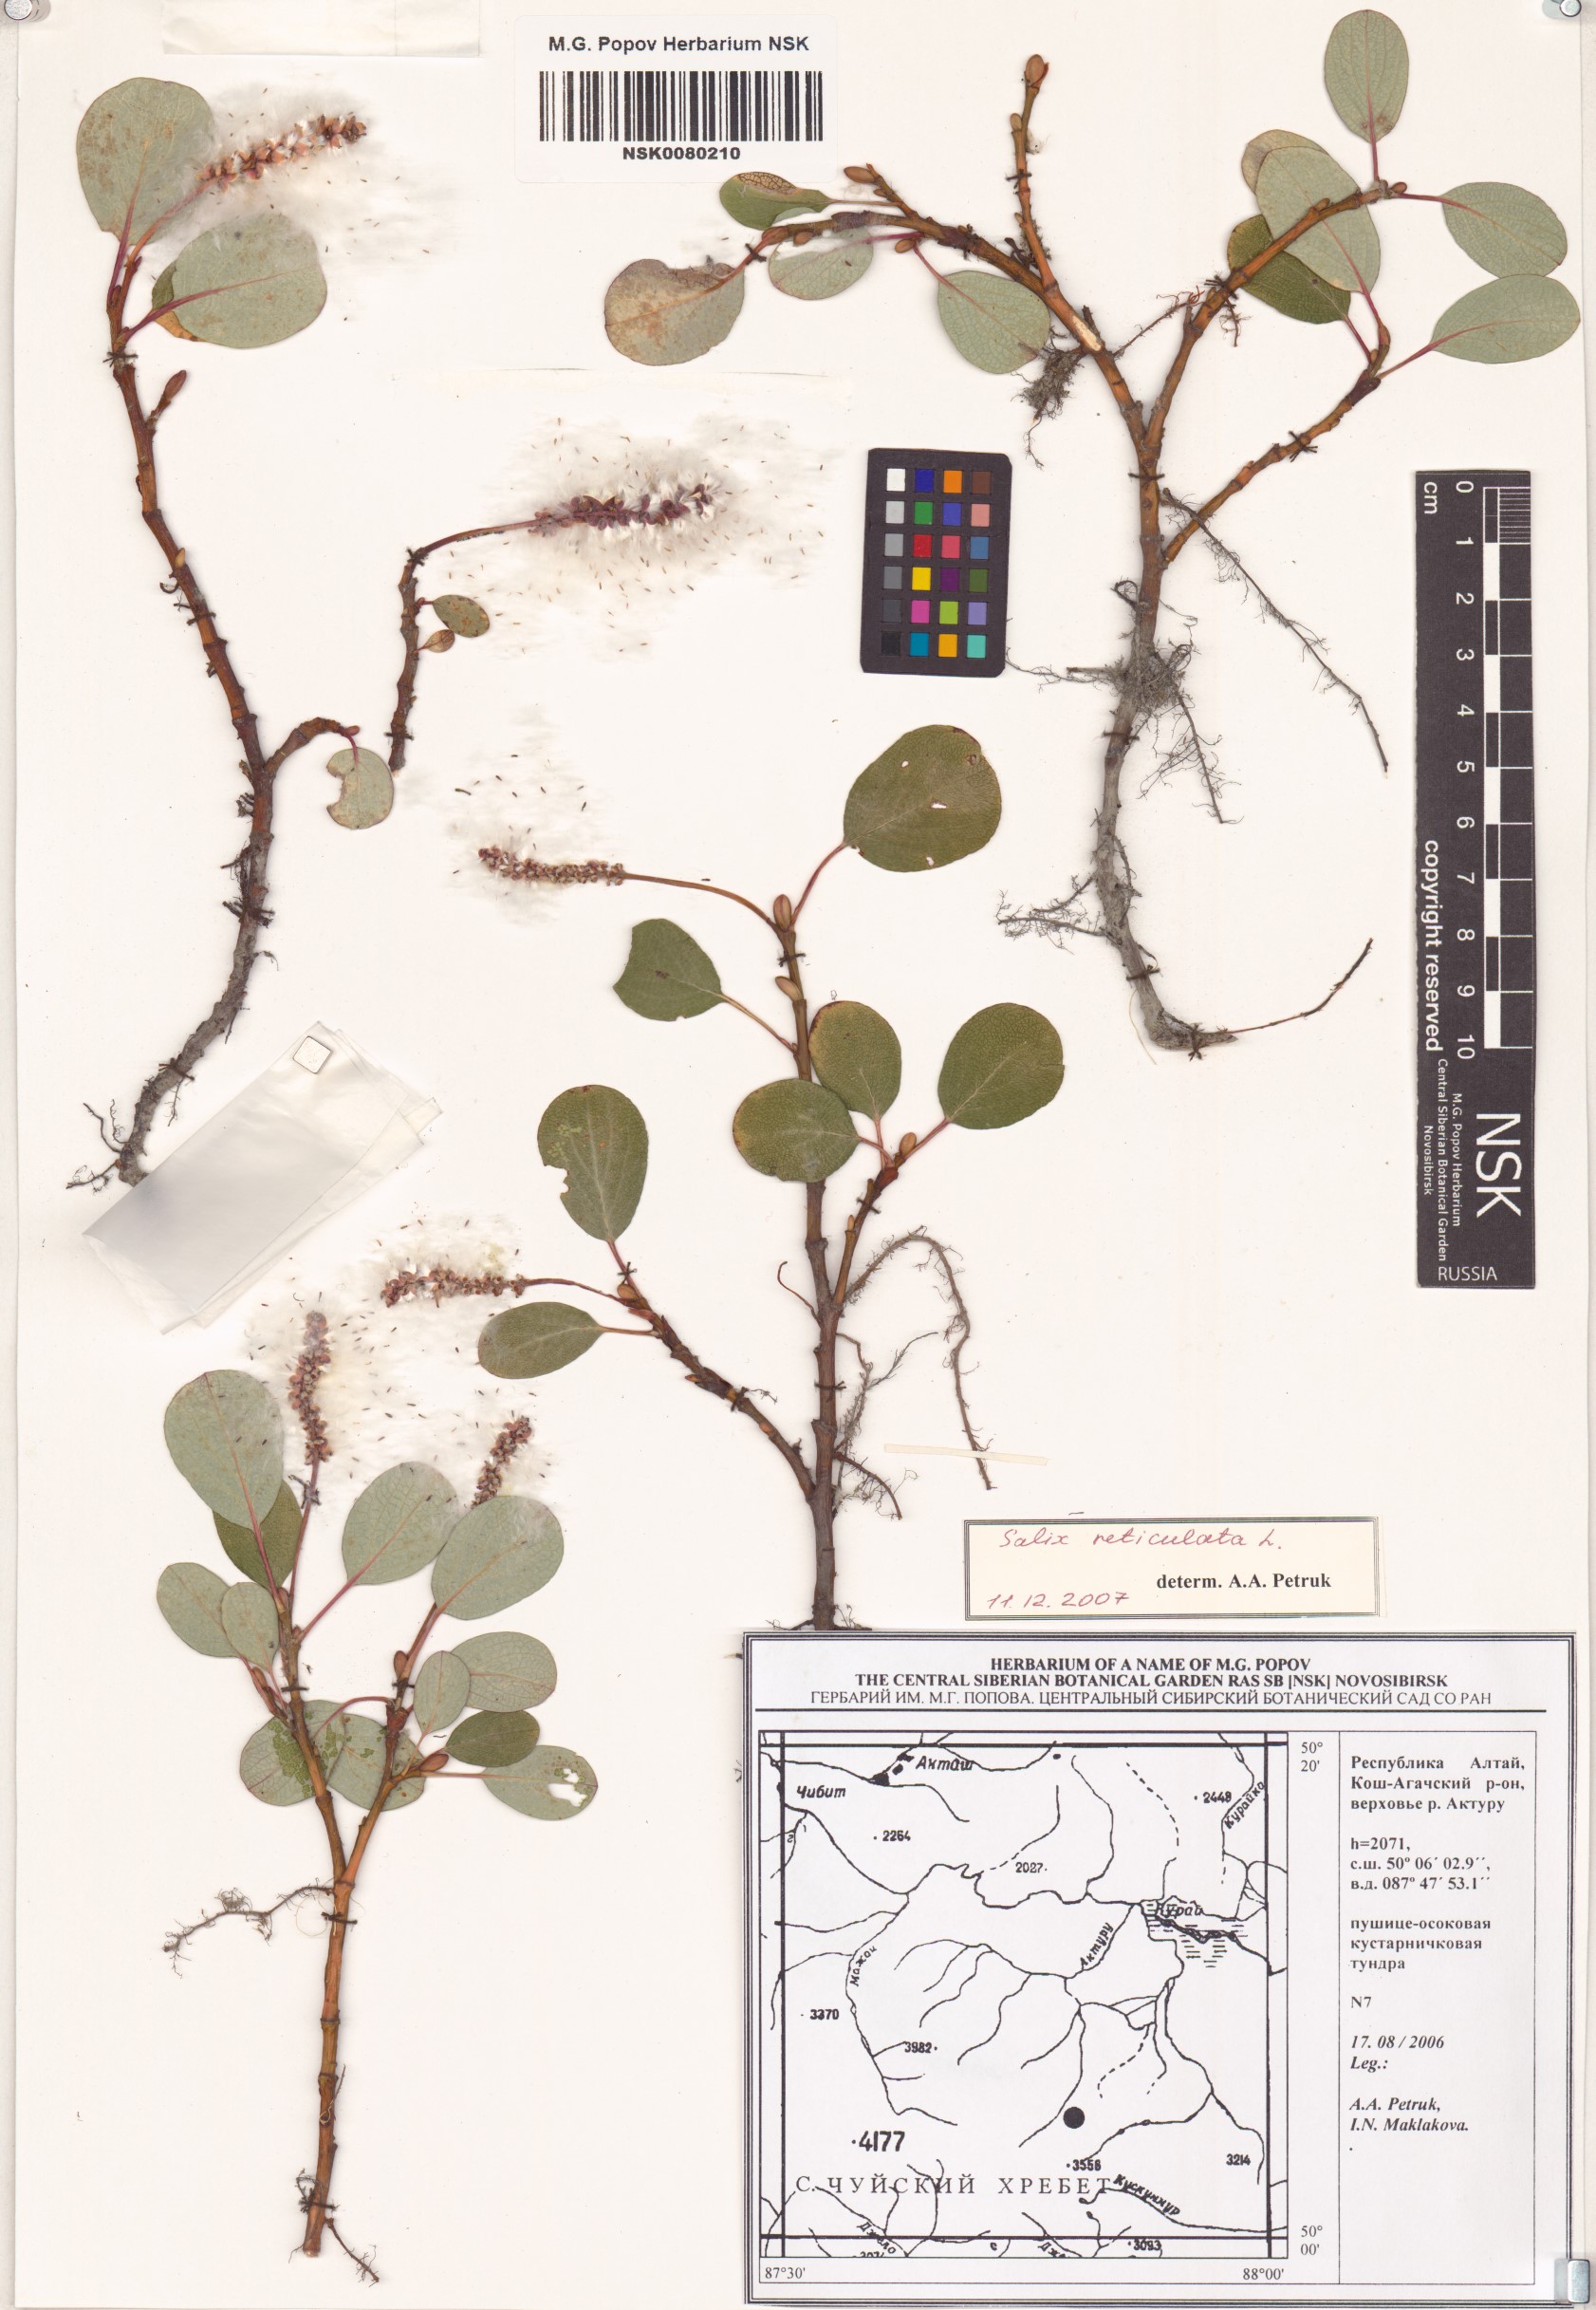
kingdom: Plantae
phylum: Tracheophyta
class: Magnoliopsida
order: Malpighiales
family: Salicaceae
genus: Salix
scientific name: Salix reticulata
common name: Net-leaved willow
